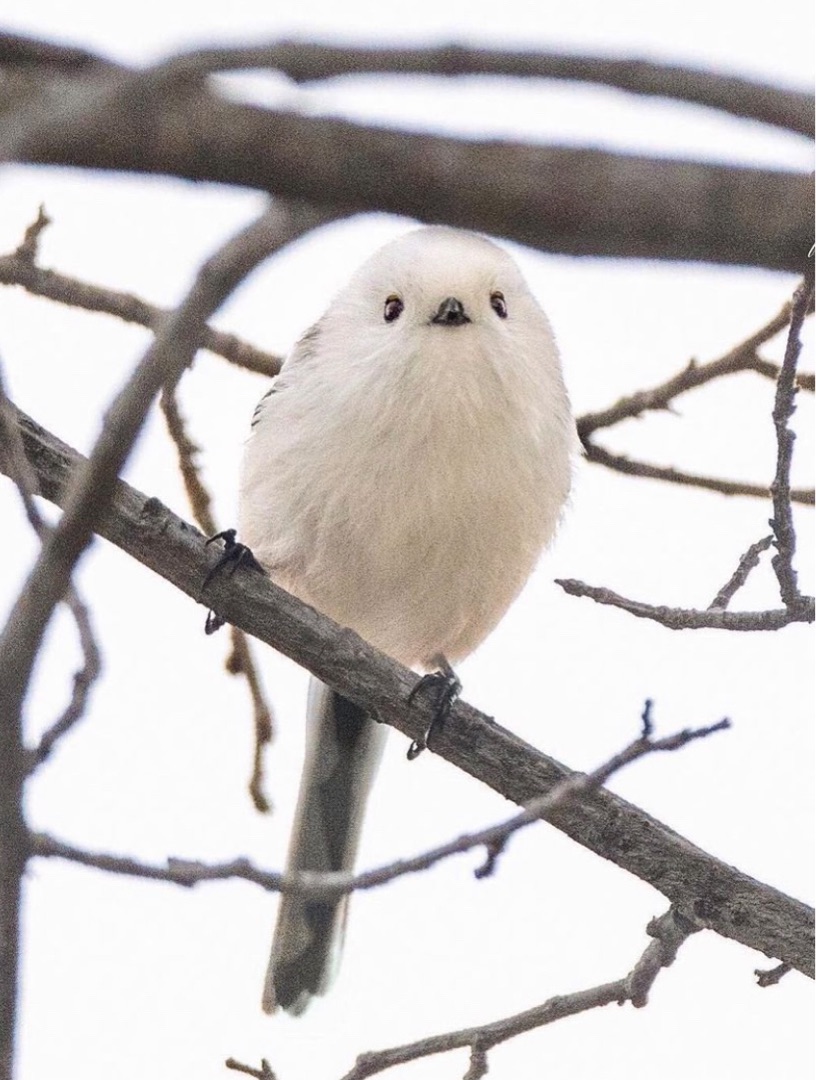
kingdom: Animalia
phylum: Chordata
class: Aves
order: Passeriformes
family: Aegithalidae
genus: Aegithalos
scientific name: Aegithalos caudatus
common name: Halemejse
